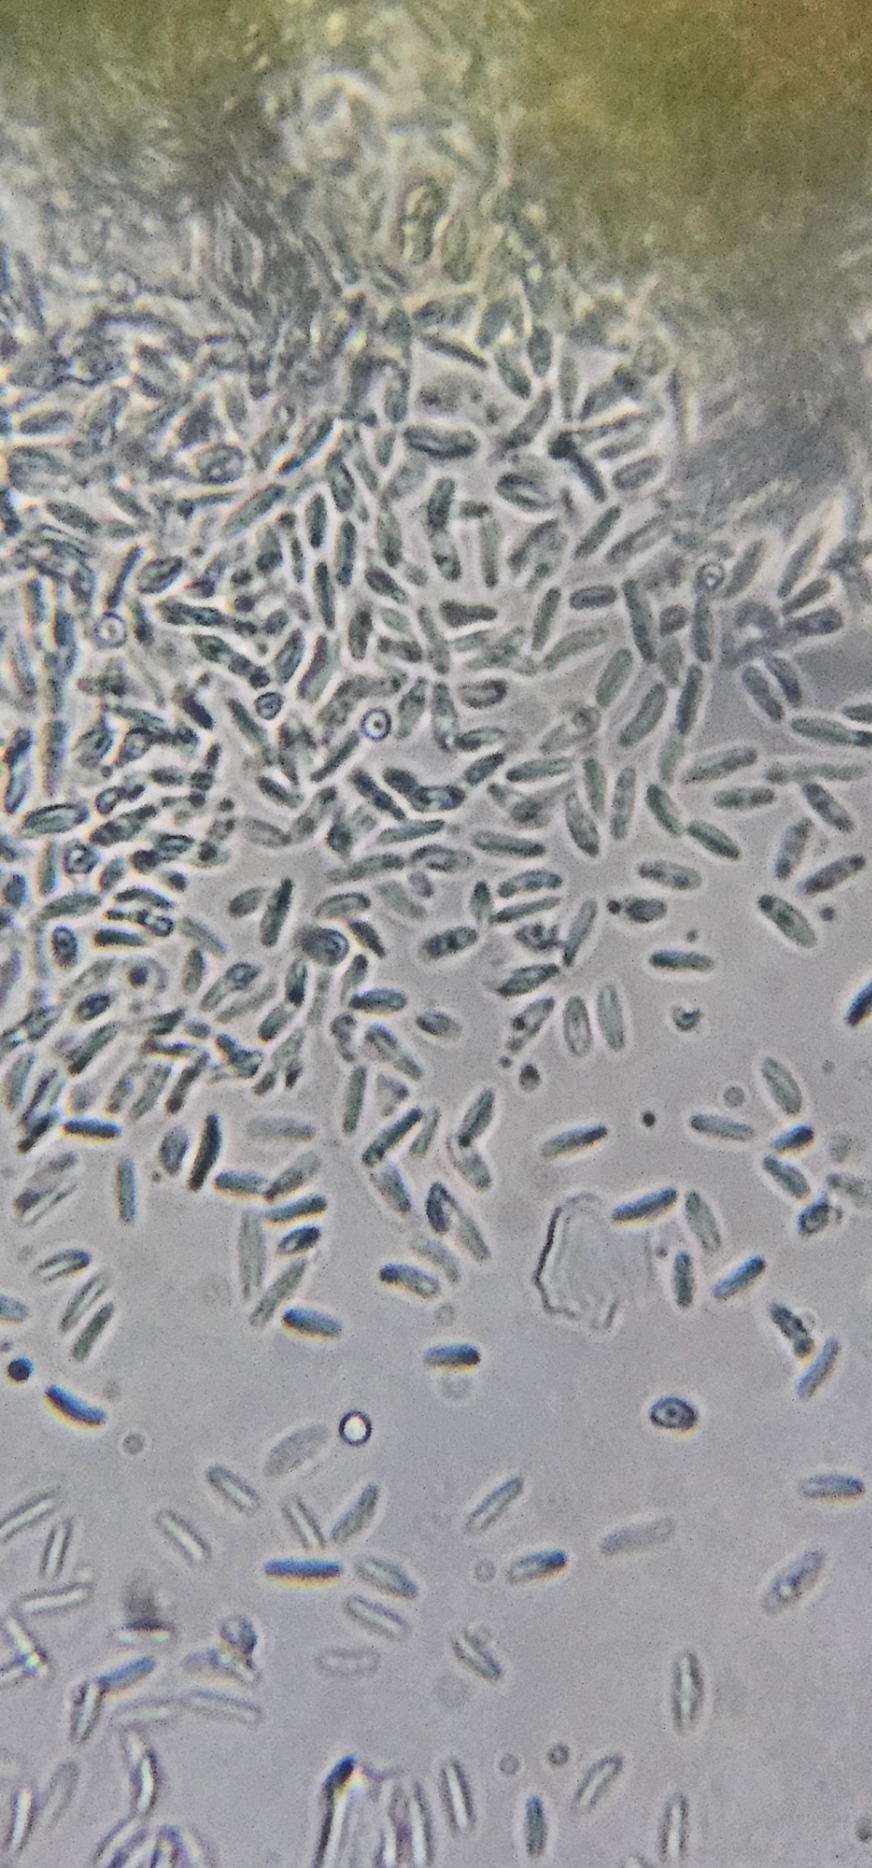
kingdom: Fungi
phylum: Ascomycota
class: Arthoniomycetes
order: Arthoniales
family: Opegraphaceae
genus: Opegrapha
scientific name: Opegrapha vermicellifera
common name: Nåleprikket bogstavlav
